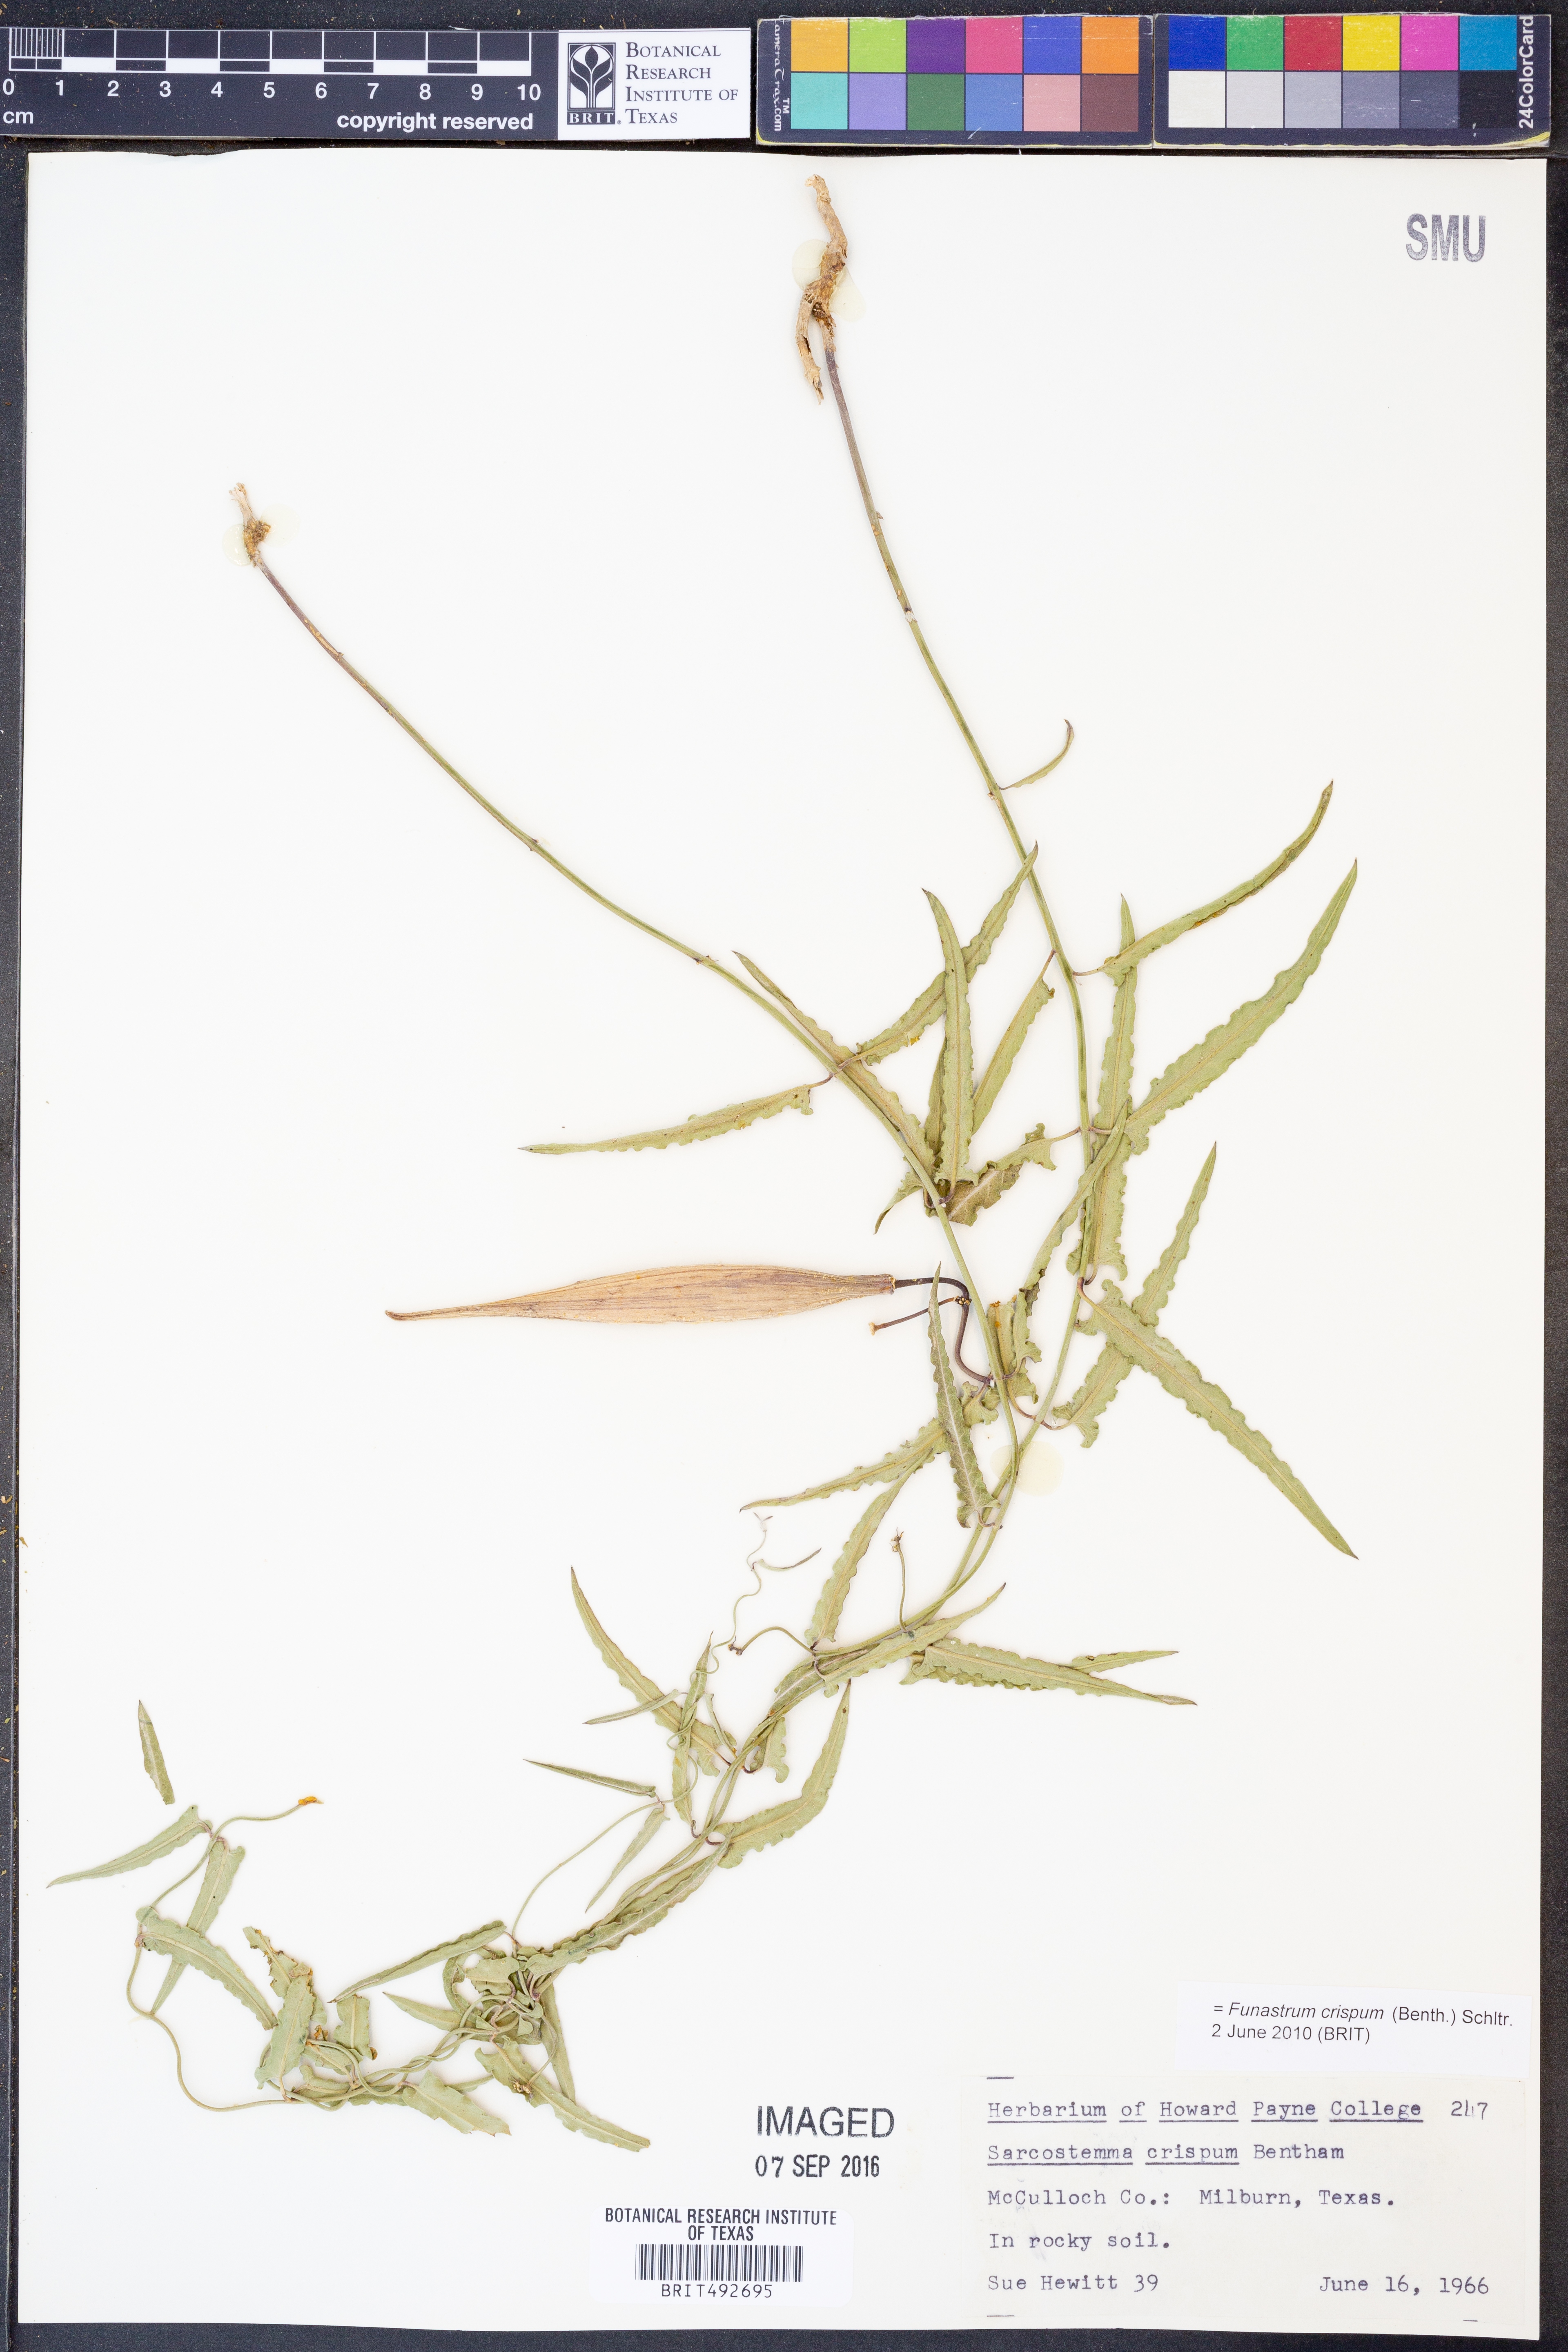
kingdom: Plantae
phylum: Tracheophyta
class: Magnoliopsida
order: Gentianales
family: Apocynaceae
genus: Funastrum
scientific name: Funastrum crispum
